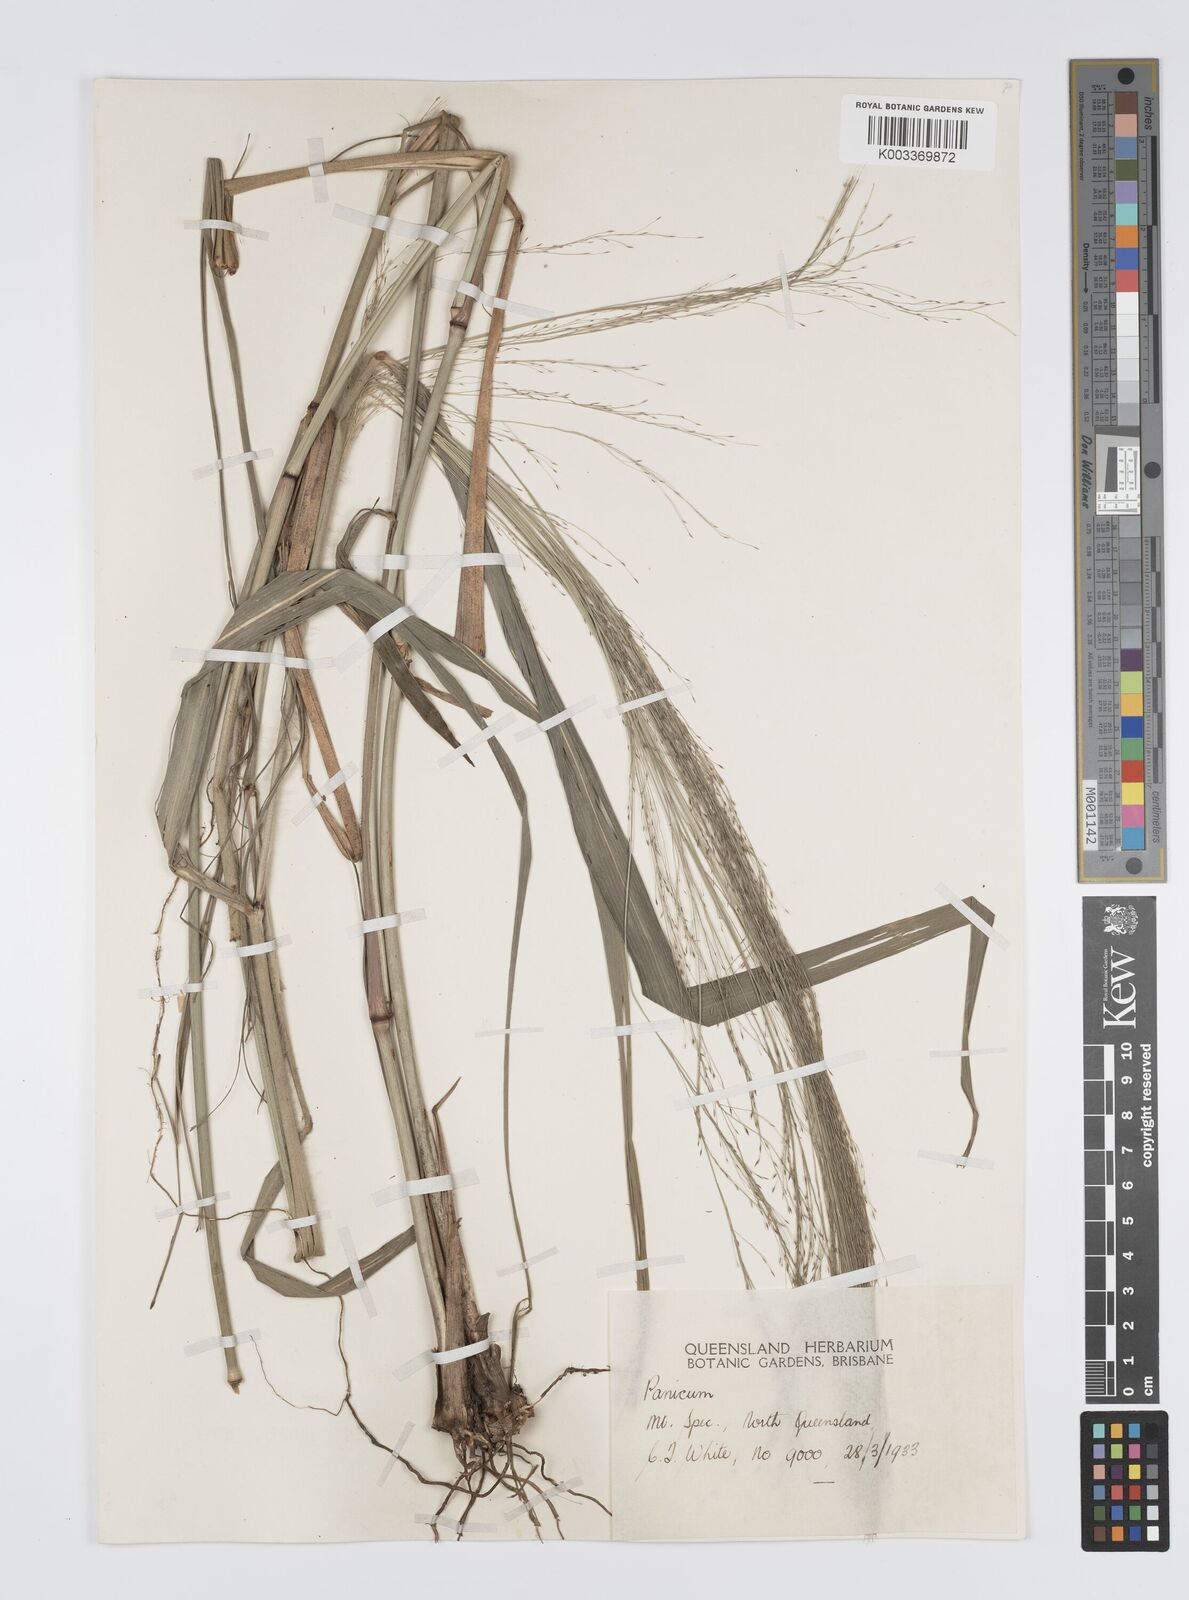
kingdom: Plantae
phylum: Tracheophyta
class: Liliopsida
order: Poales
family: Poaceae
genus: Panicum
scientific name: Panicum mitchellii
